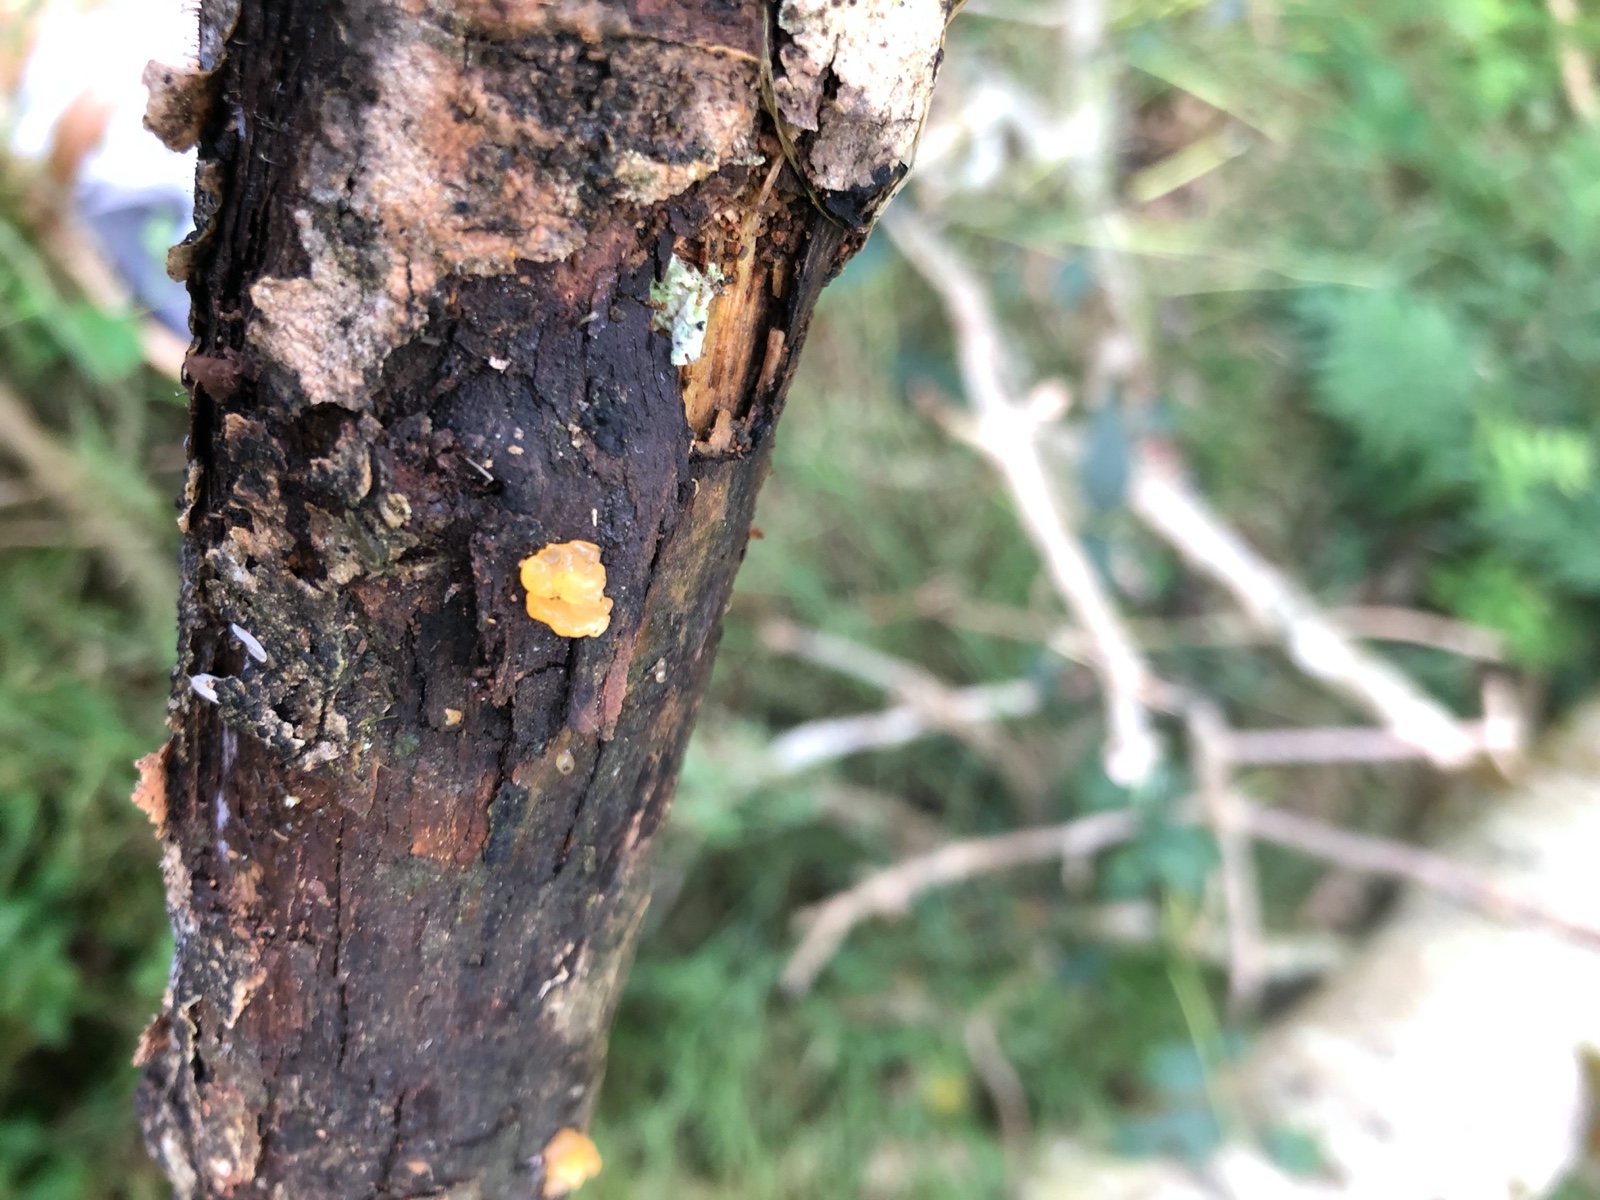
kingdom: Fungi
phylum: Basidiomycota
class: Dacrymycetes
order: Dacrymycetales
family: Dacrymycetaceae
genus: Dacrymyces
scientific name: Dacrymyces lacrymalis
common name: rynket tåresvamp
